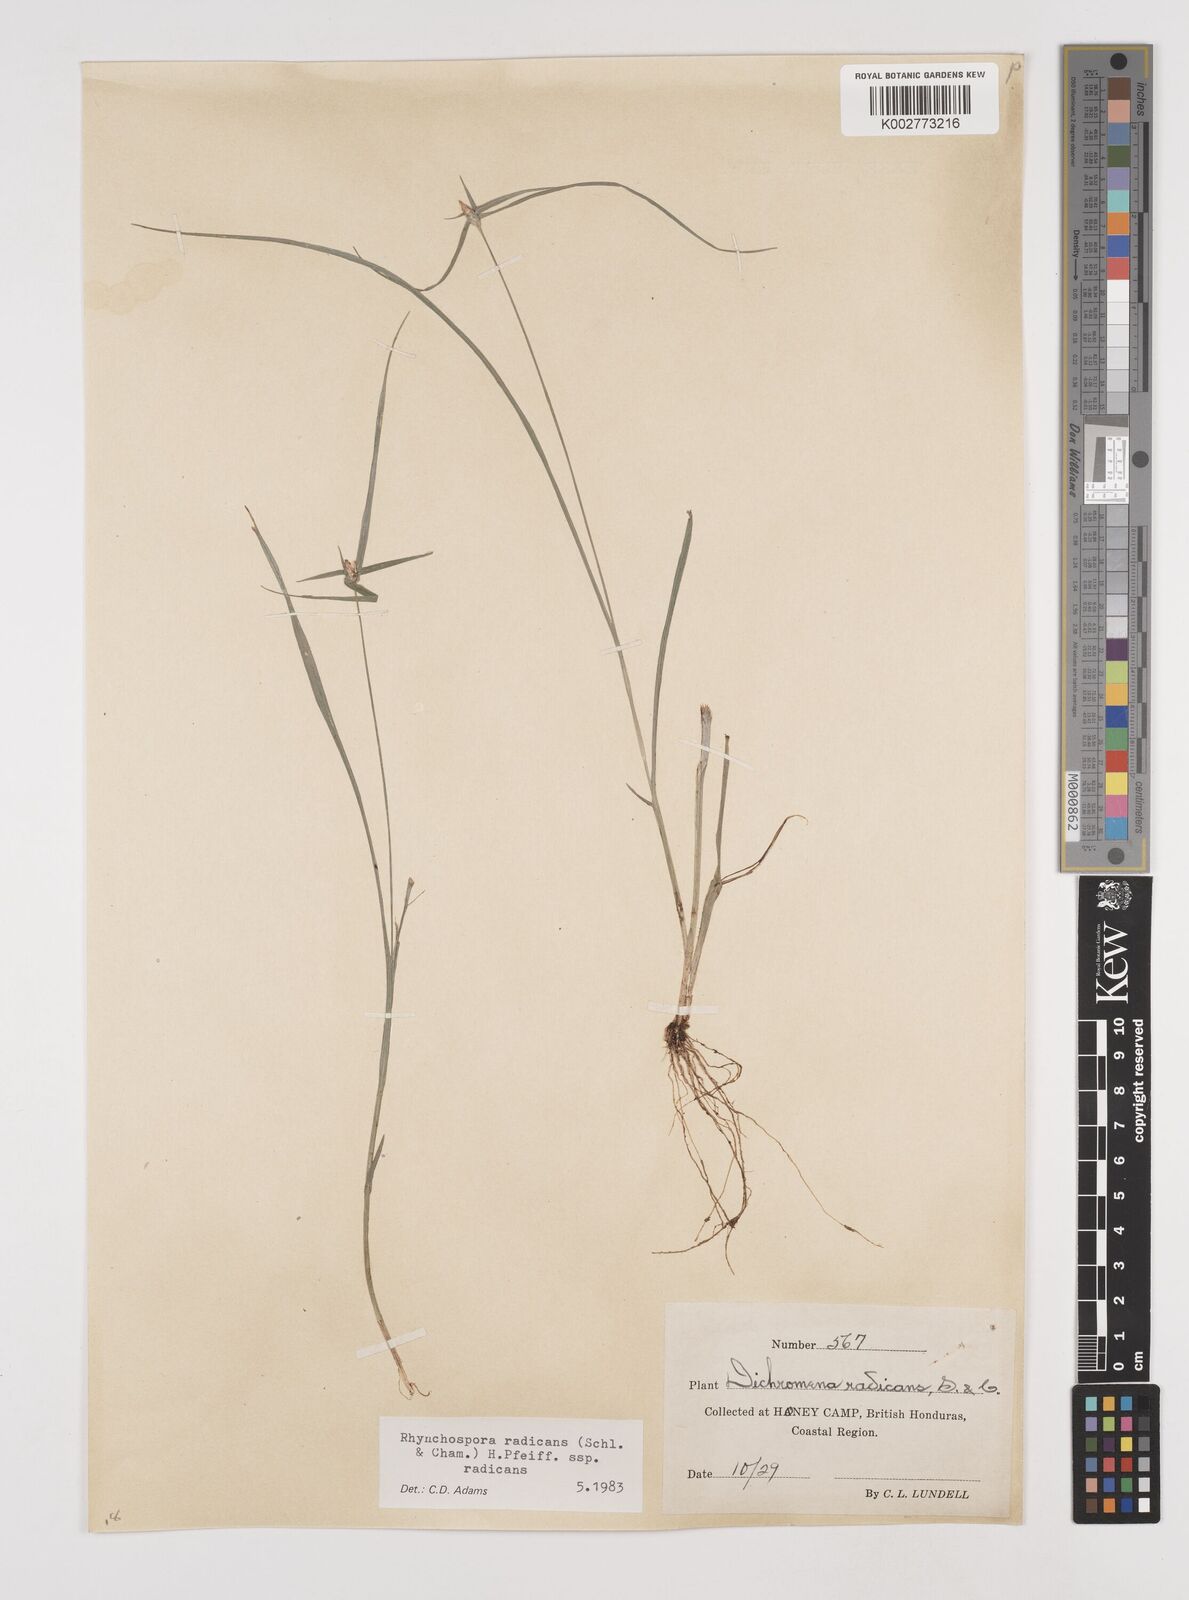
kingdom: Plantae
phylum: Tracheophyta
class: Liliopsida
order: Poales
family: Cyperaceae
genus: Rhynchospora
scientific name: Rhynchospora radicans
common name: Tropical whitetop
